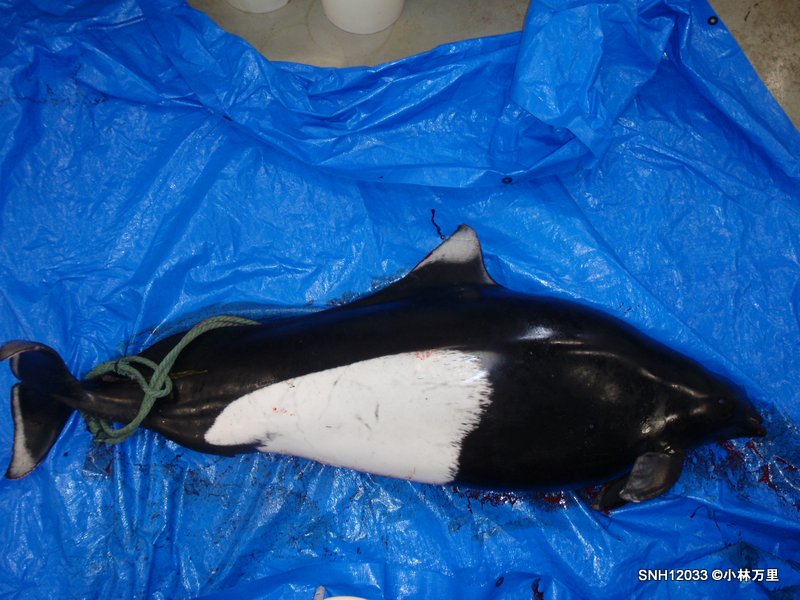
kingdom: Animalia
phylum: Chordata
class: Mammalia
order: Cetacea
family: Phocoenidae
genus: Phocoenoides
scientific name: Phocoenoides dalli
